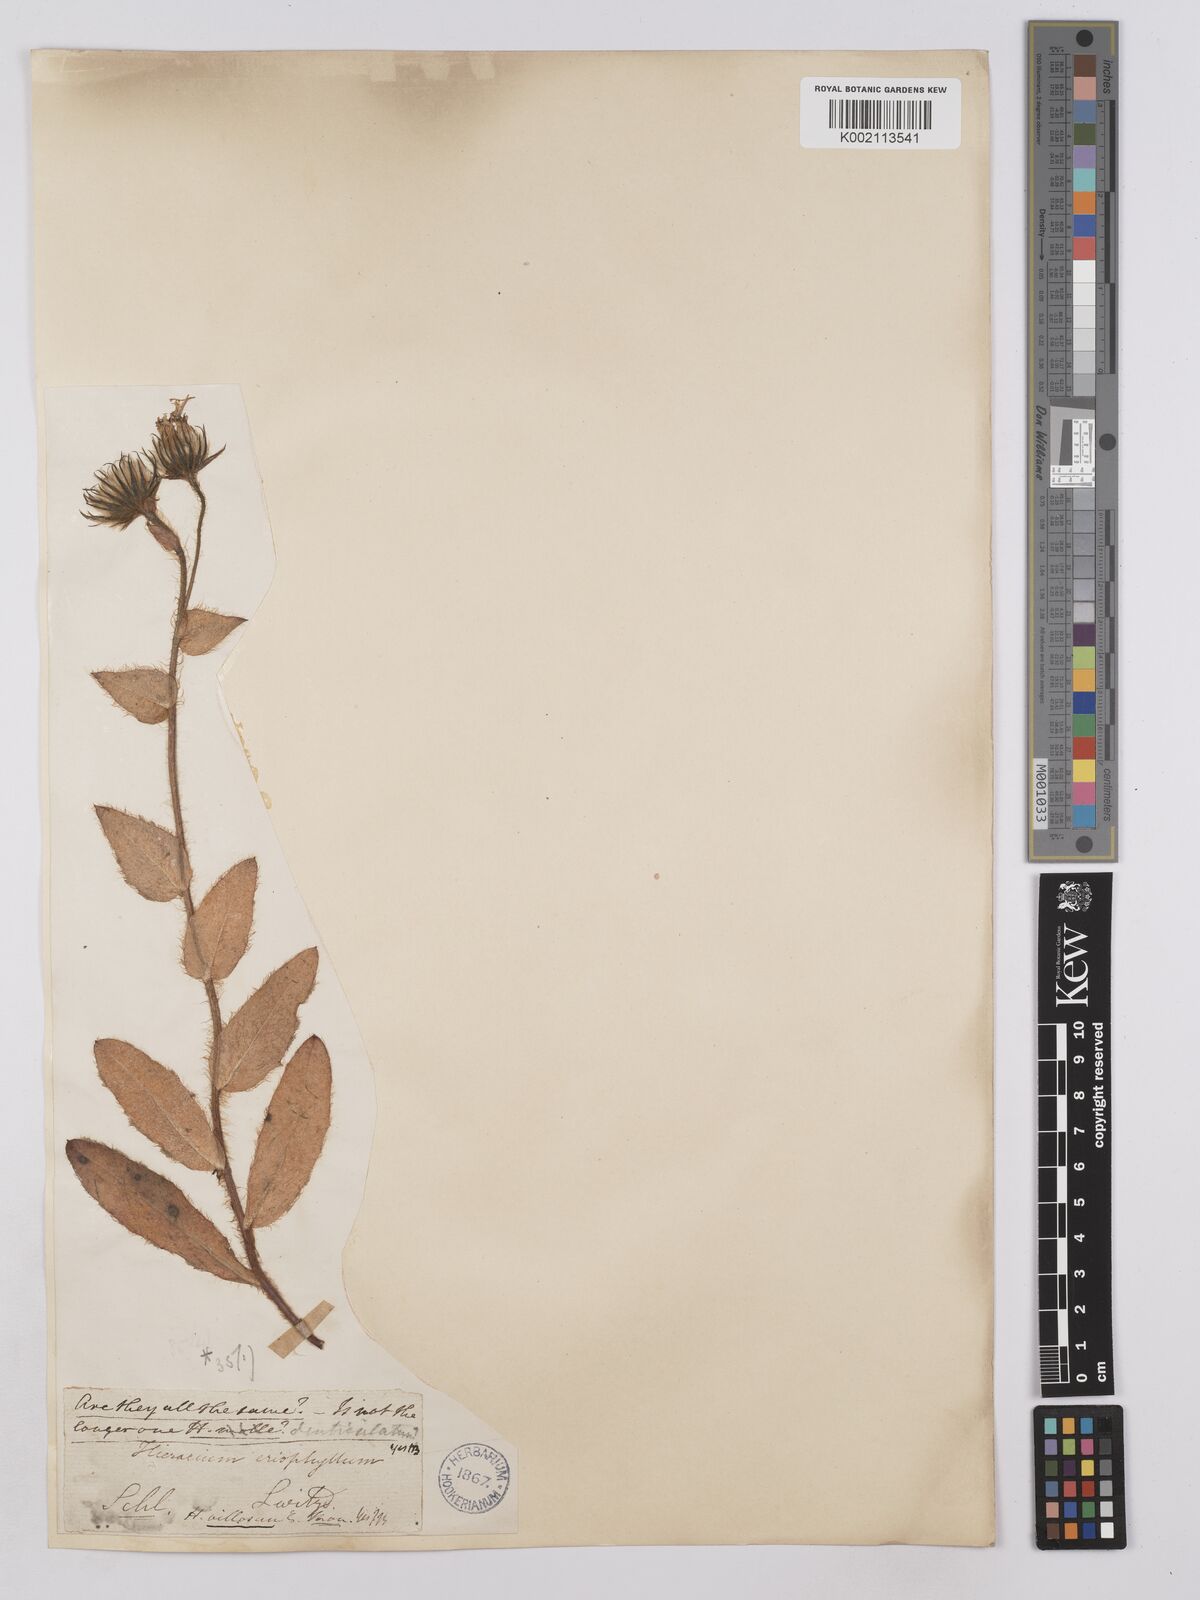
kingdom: Plantae
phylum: Tracheophyta
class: Magnoliopsida
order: Asterales
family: Asteraceae
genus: Hieracium
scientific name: Hieracium
